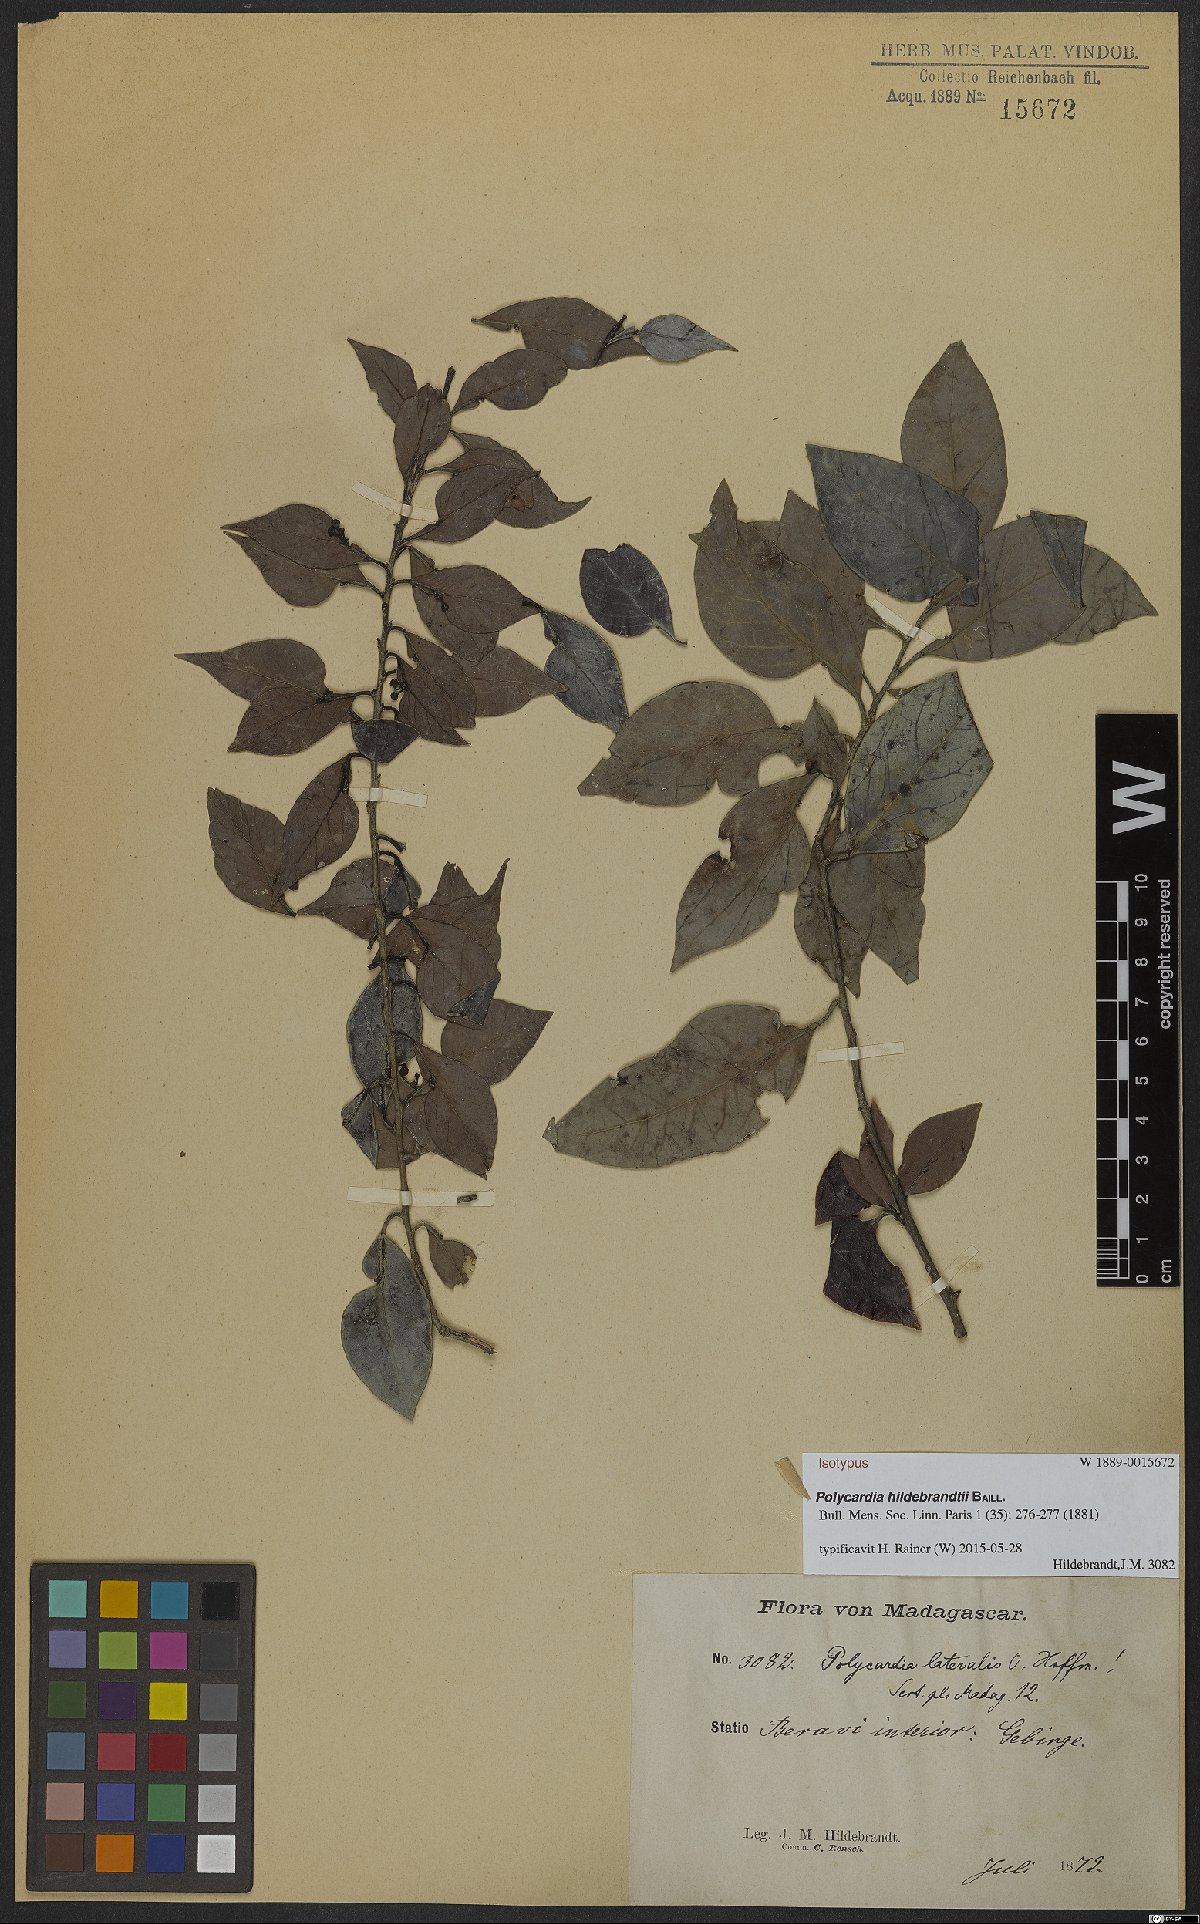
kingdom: Plantae
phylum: Tracheophyta
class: Magnoliopsida
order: Celastrales
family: Celastraceae
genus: Polycardia
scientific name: Polycardia lateralis
